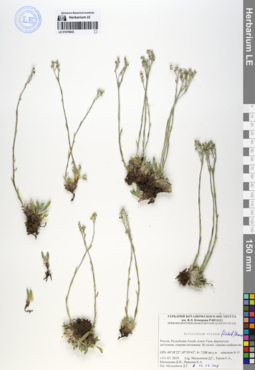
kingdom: Plantae
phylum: Tracheophyta
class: Magnoliopsida
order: Boraginales
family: Boraginaceae
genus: Eritrichium
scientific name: Eritrichium villosum
